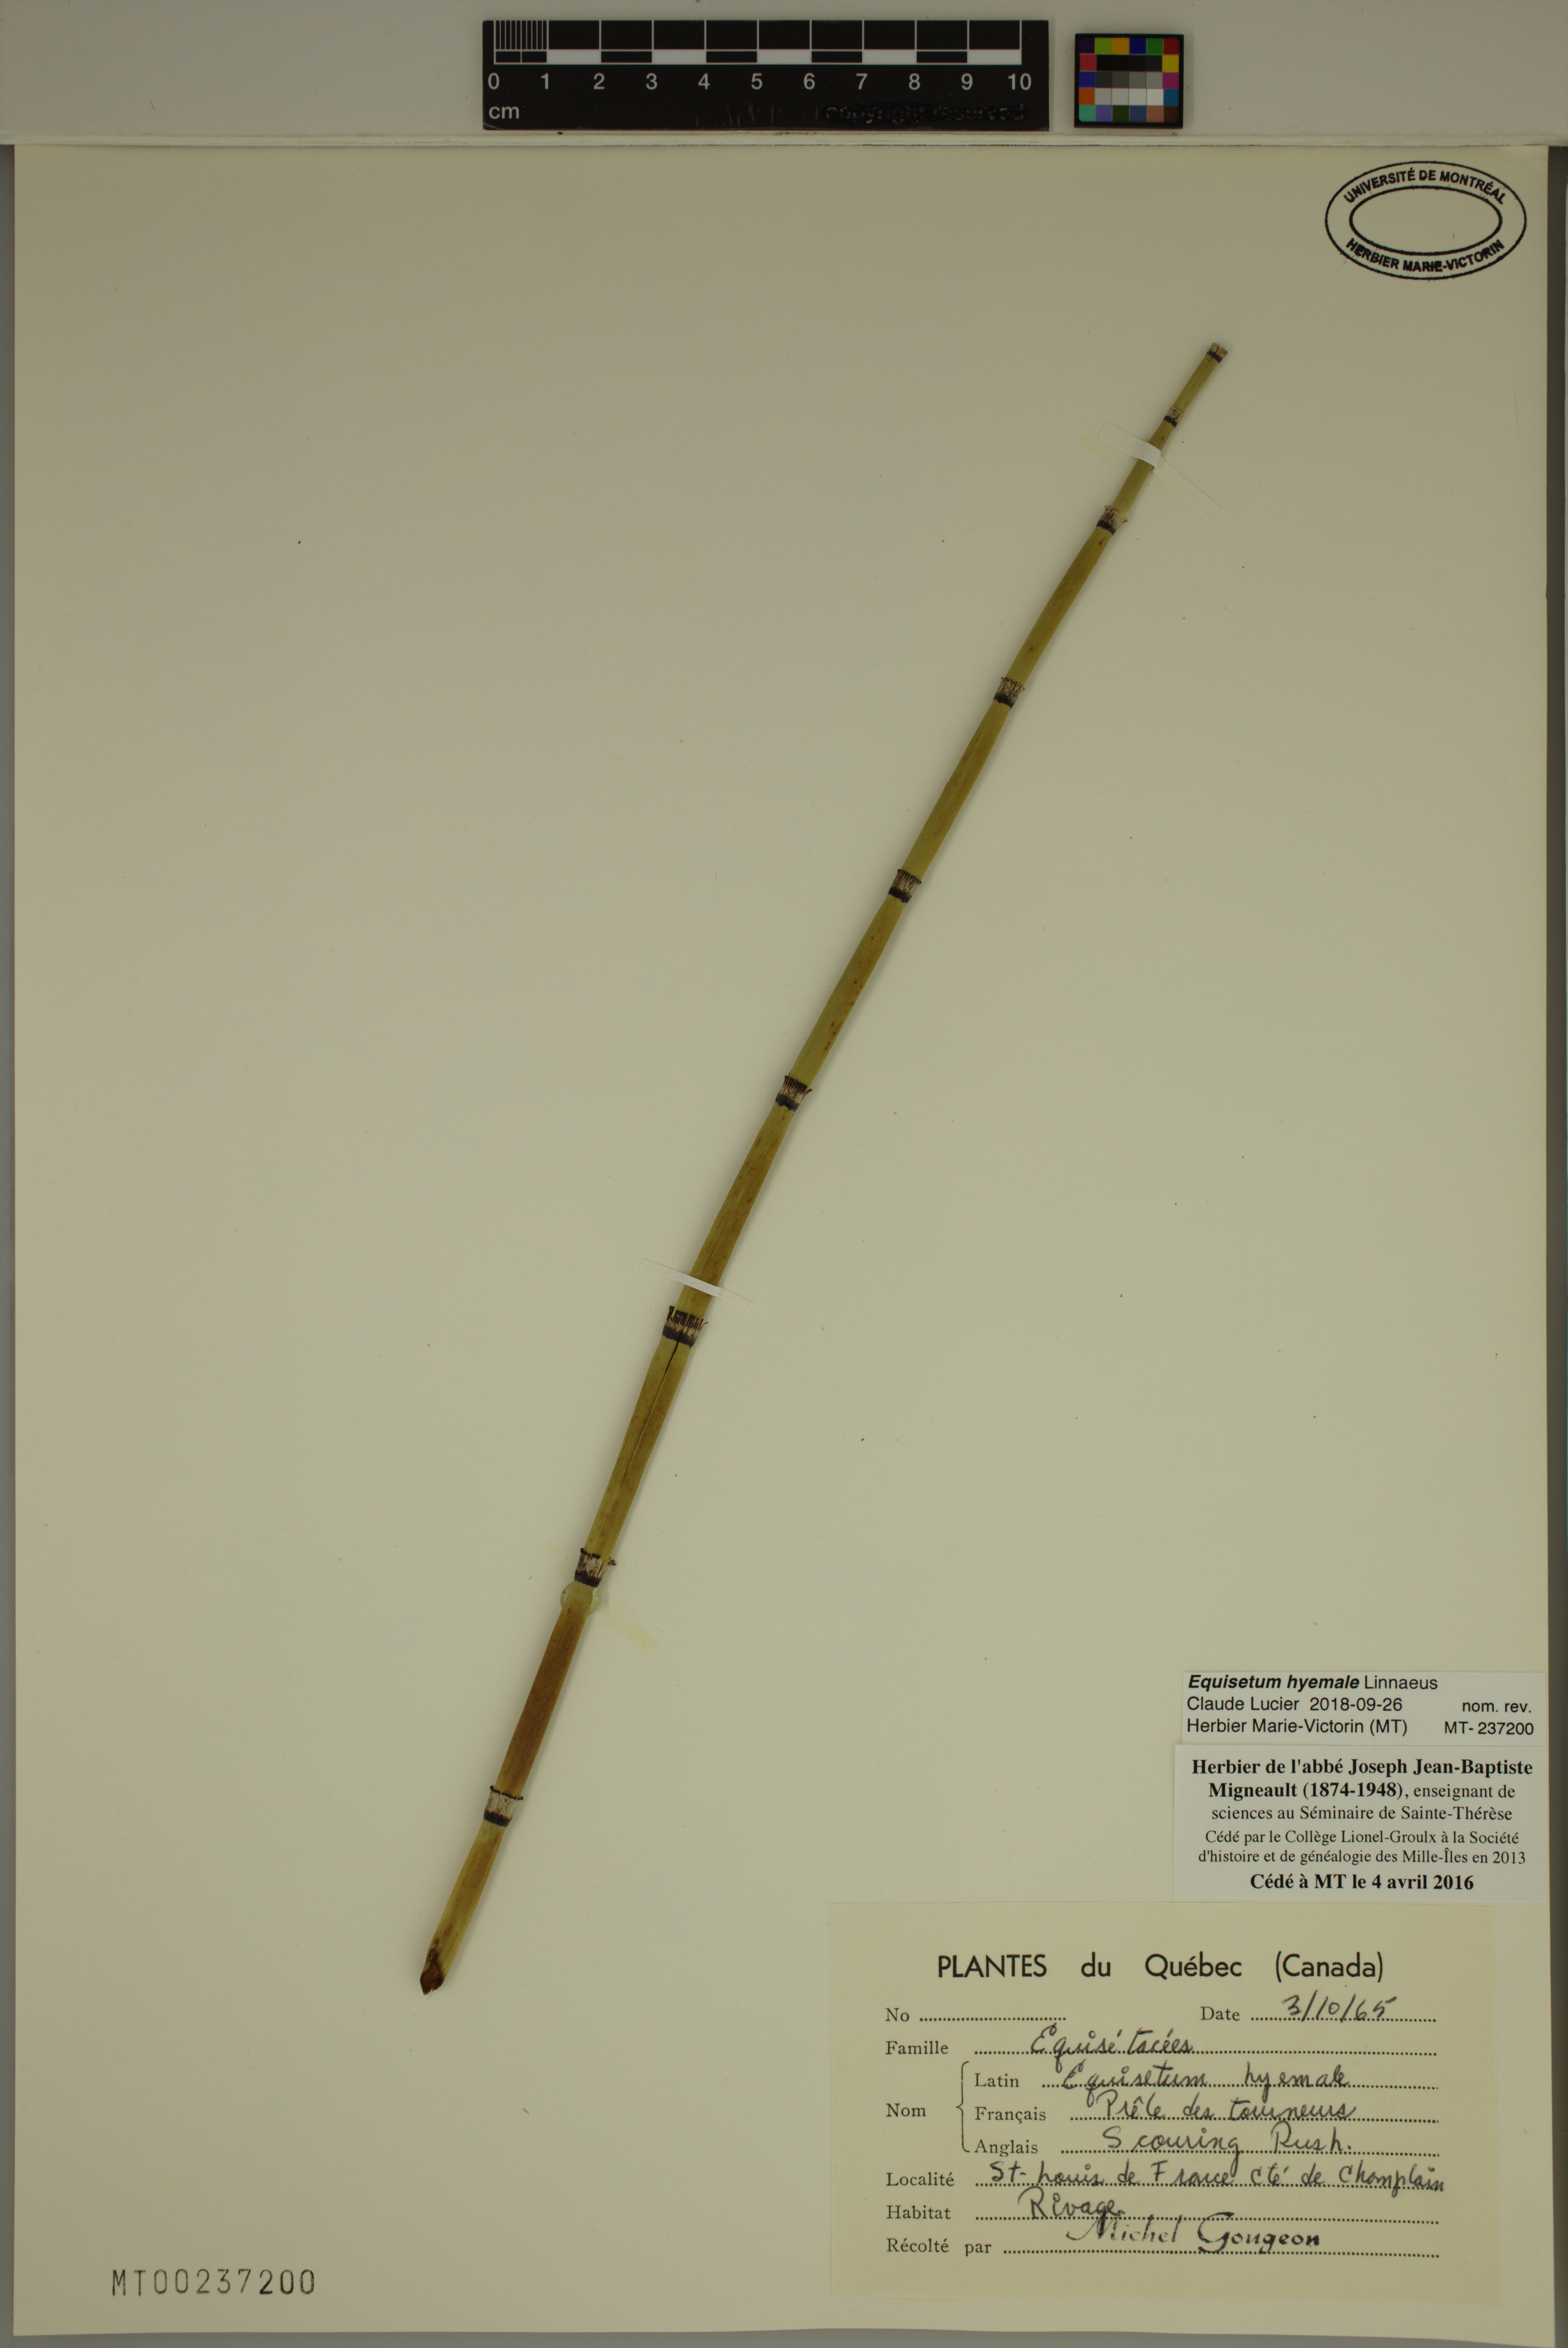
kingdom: Plantae
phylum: Tracheophyta
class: Polypodiopsida
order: Equisetales
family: Equisetaceae
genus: Equisetum
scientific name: Equisetum hyemale
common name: Rough horsetail
